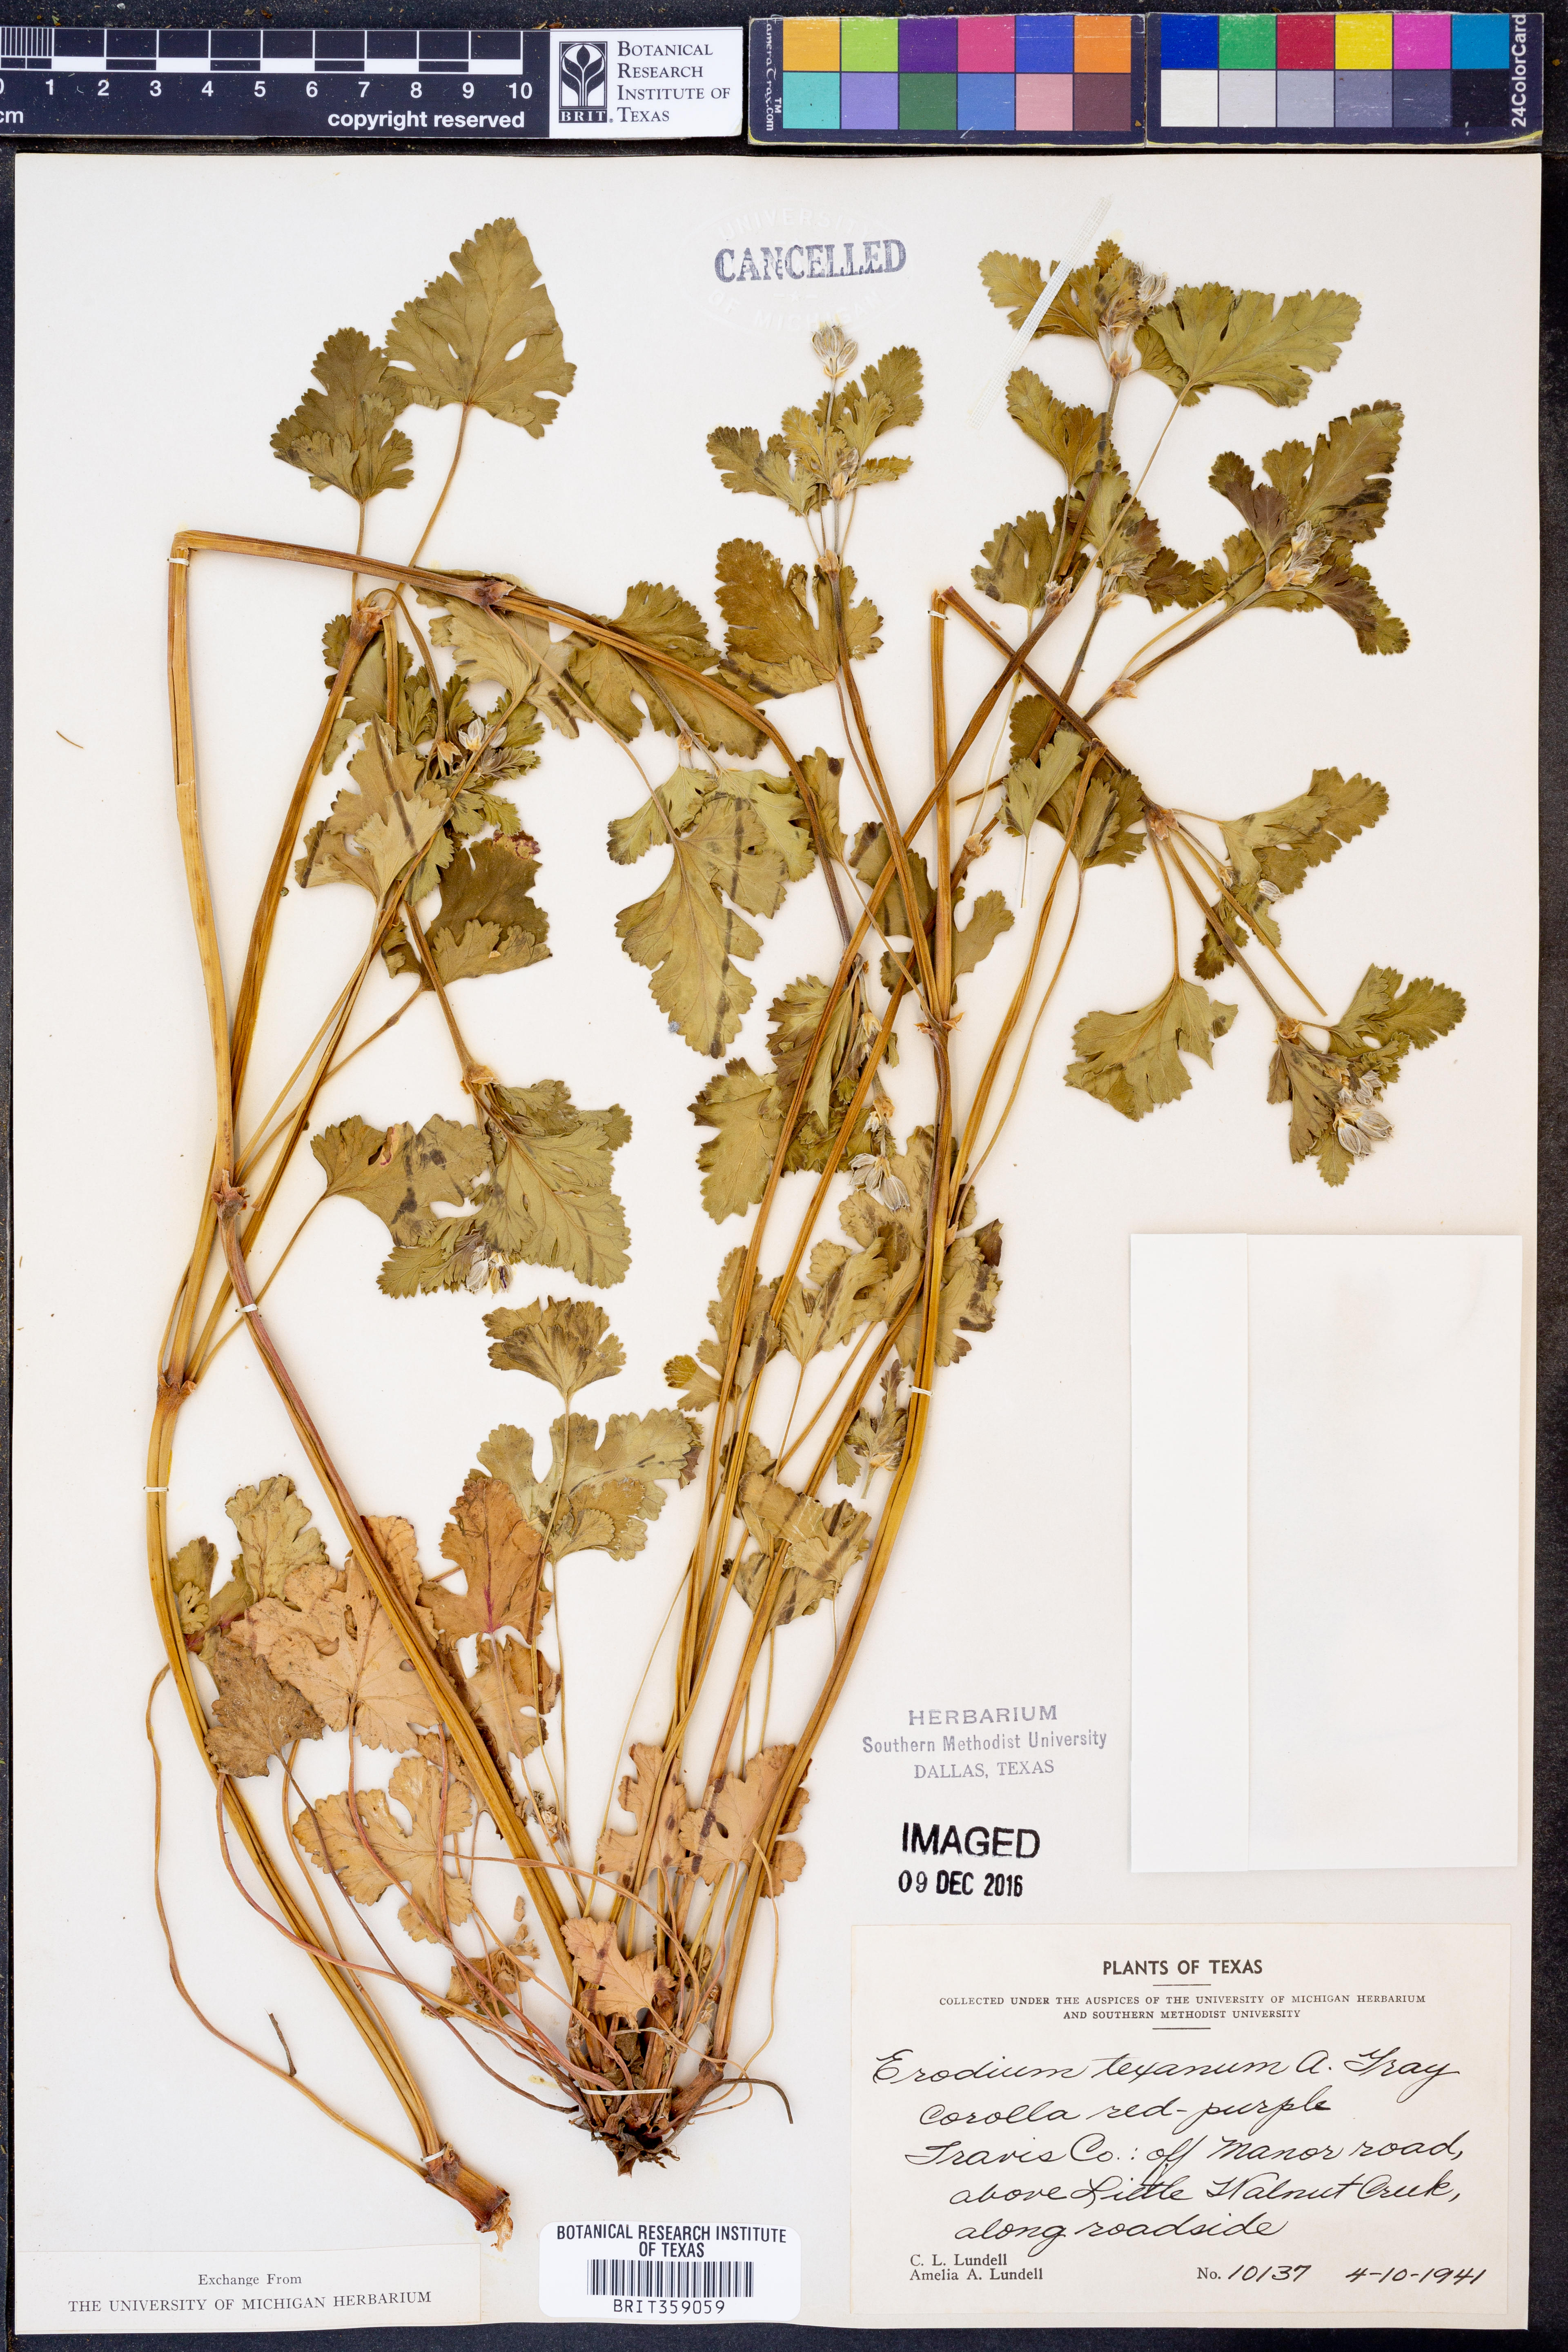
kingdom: Plantae
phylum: Tracheophyta
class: Magnoliopsida
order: Geraniales
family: Geraniaceae
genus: Erodium
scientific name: Erodium texanum
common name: Texas stork's-bill
